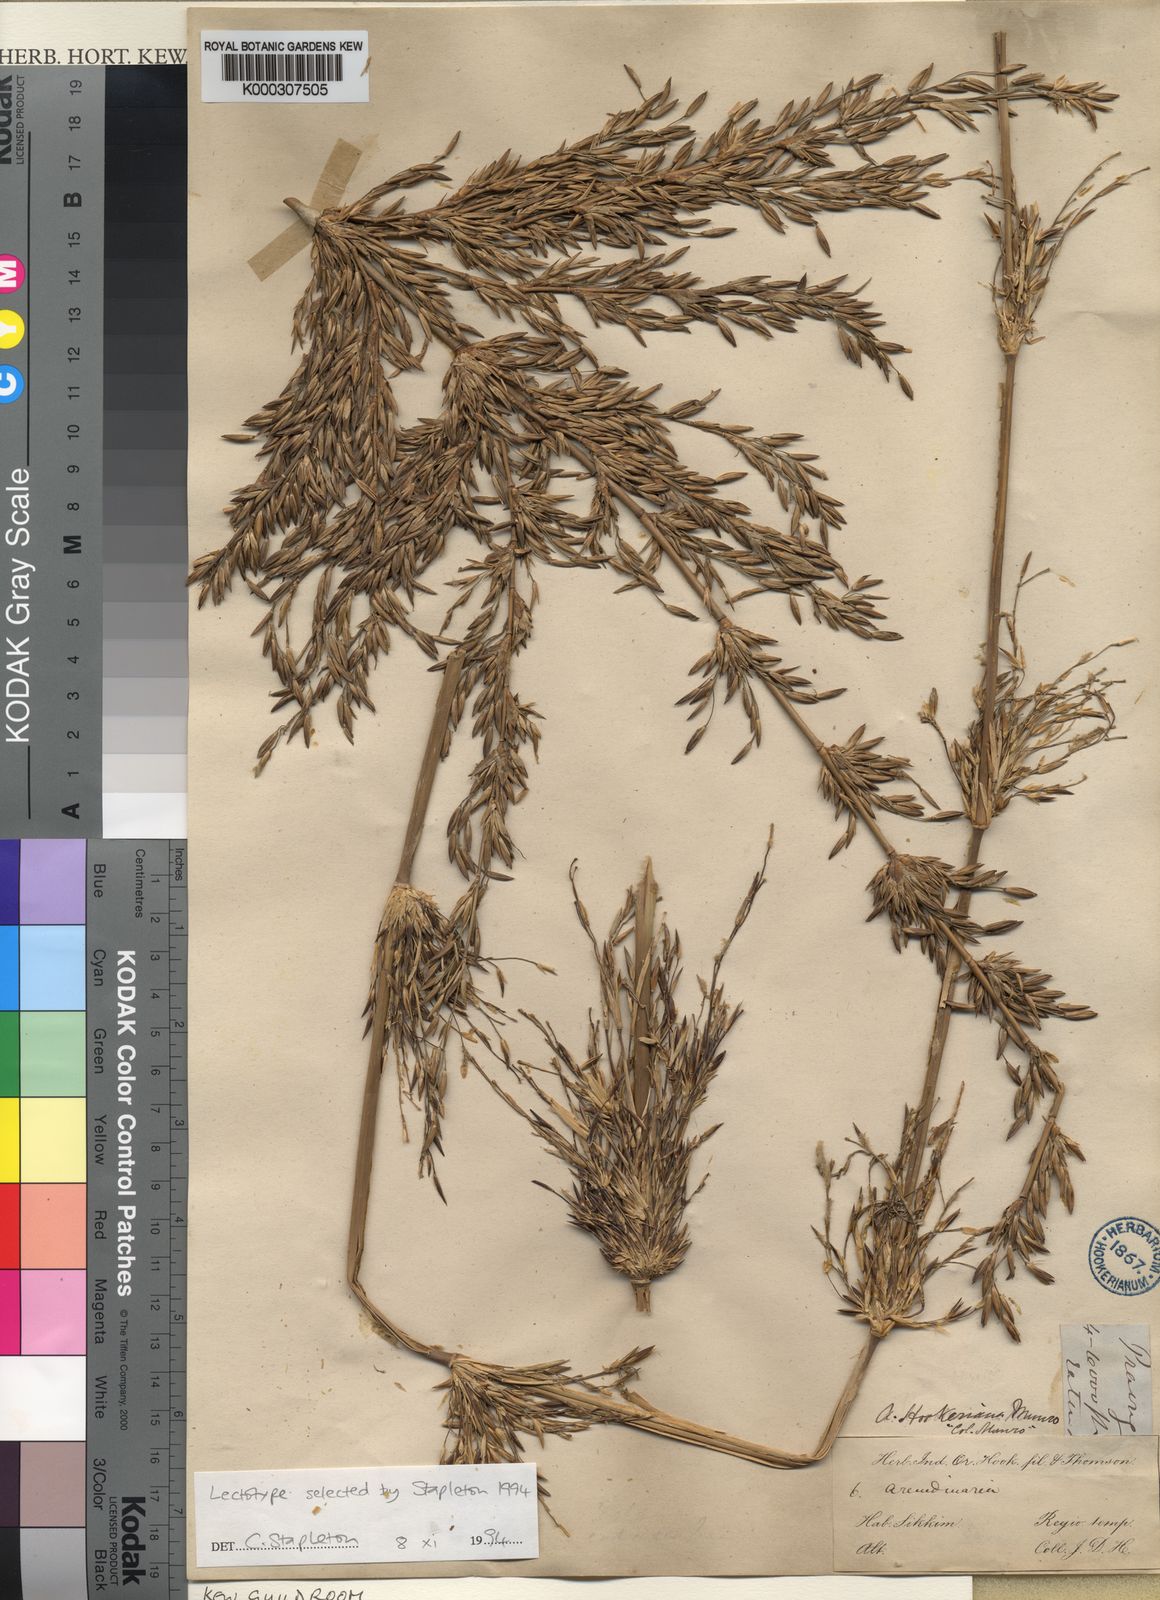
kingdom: Plantae
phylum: Tracheophyta
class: Liliopsida
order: Poales
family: Poaceae
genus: Himalayacalamus
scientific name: Himalayacalamus hookerianus
